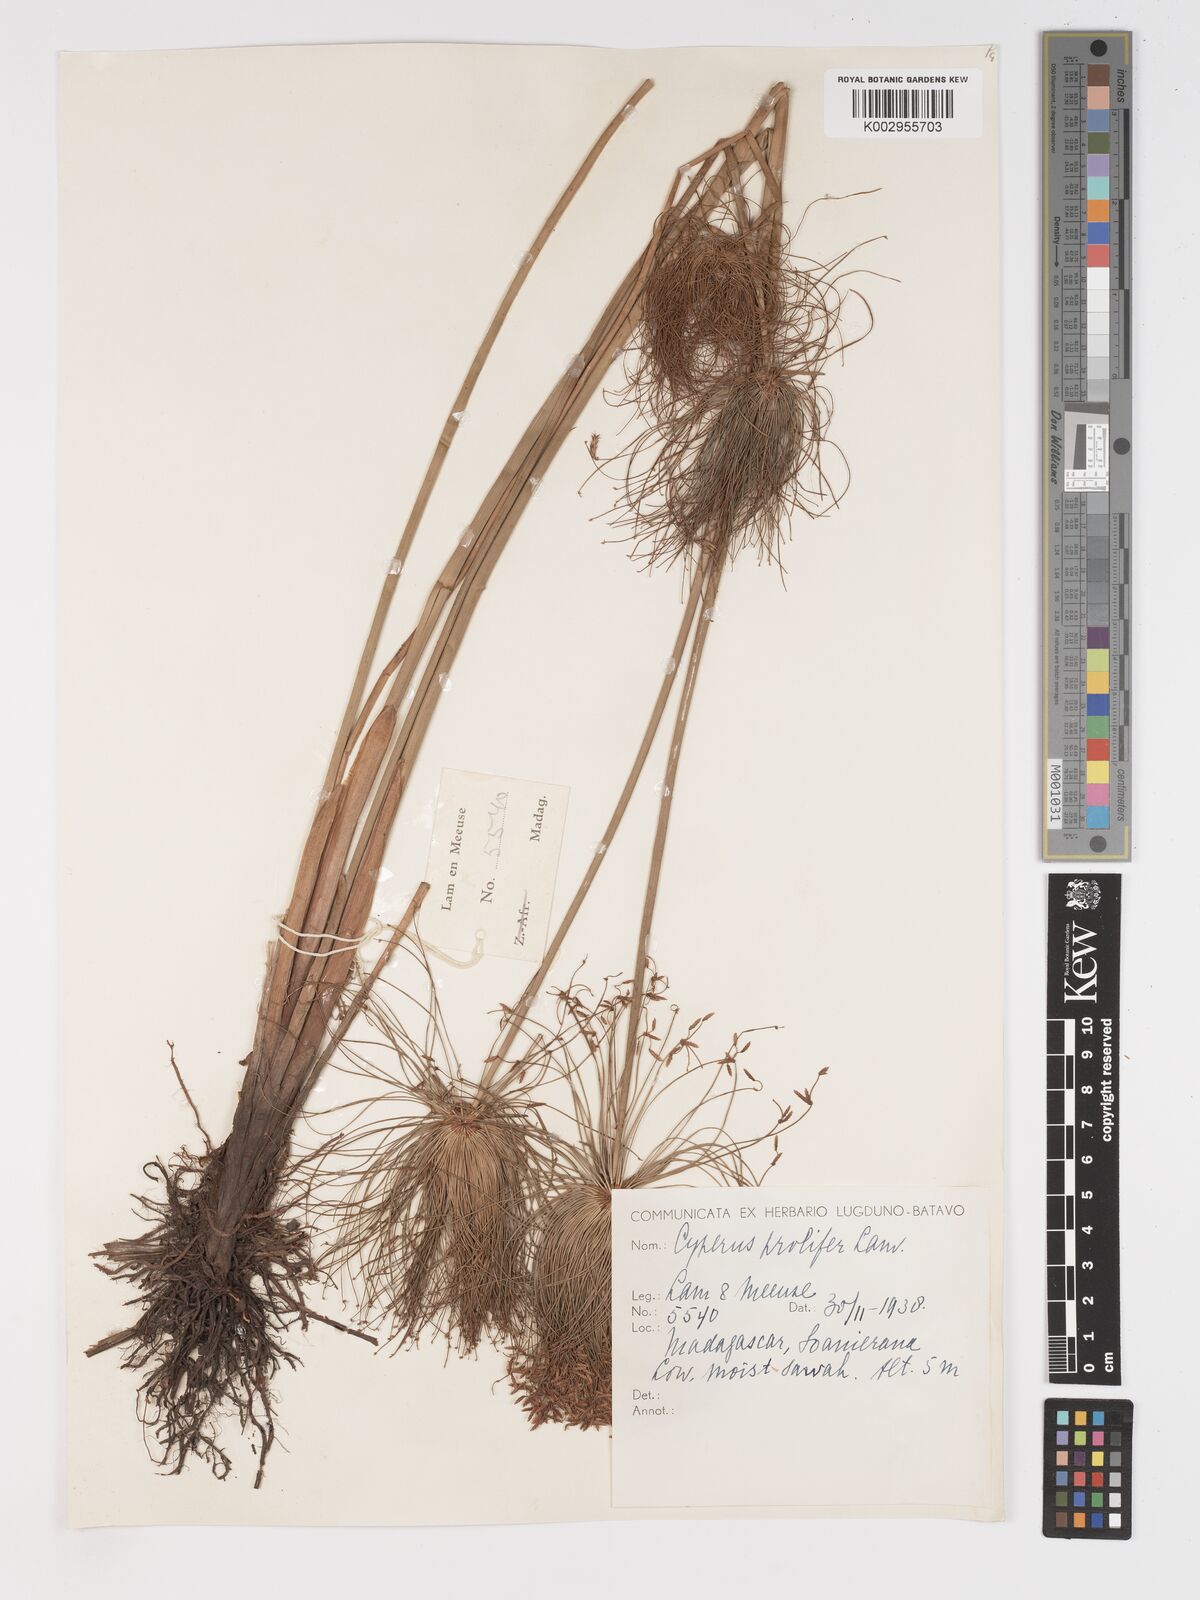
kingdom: Plantae
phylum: Tracheophyta
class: Liliopsida
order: Poales
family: Cyperaceae
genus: Cyperus
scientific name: Cyperus prolifer
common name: Miniature flatsedge
